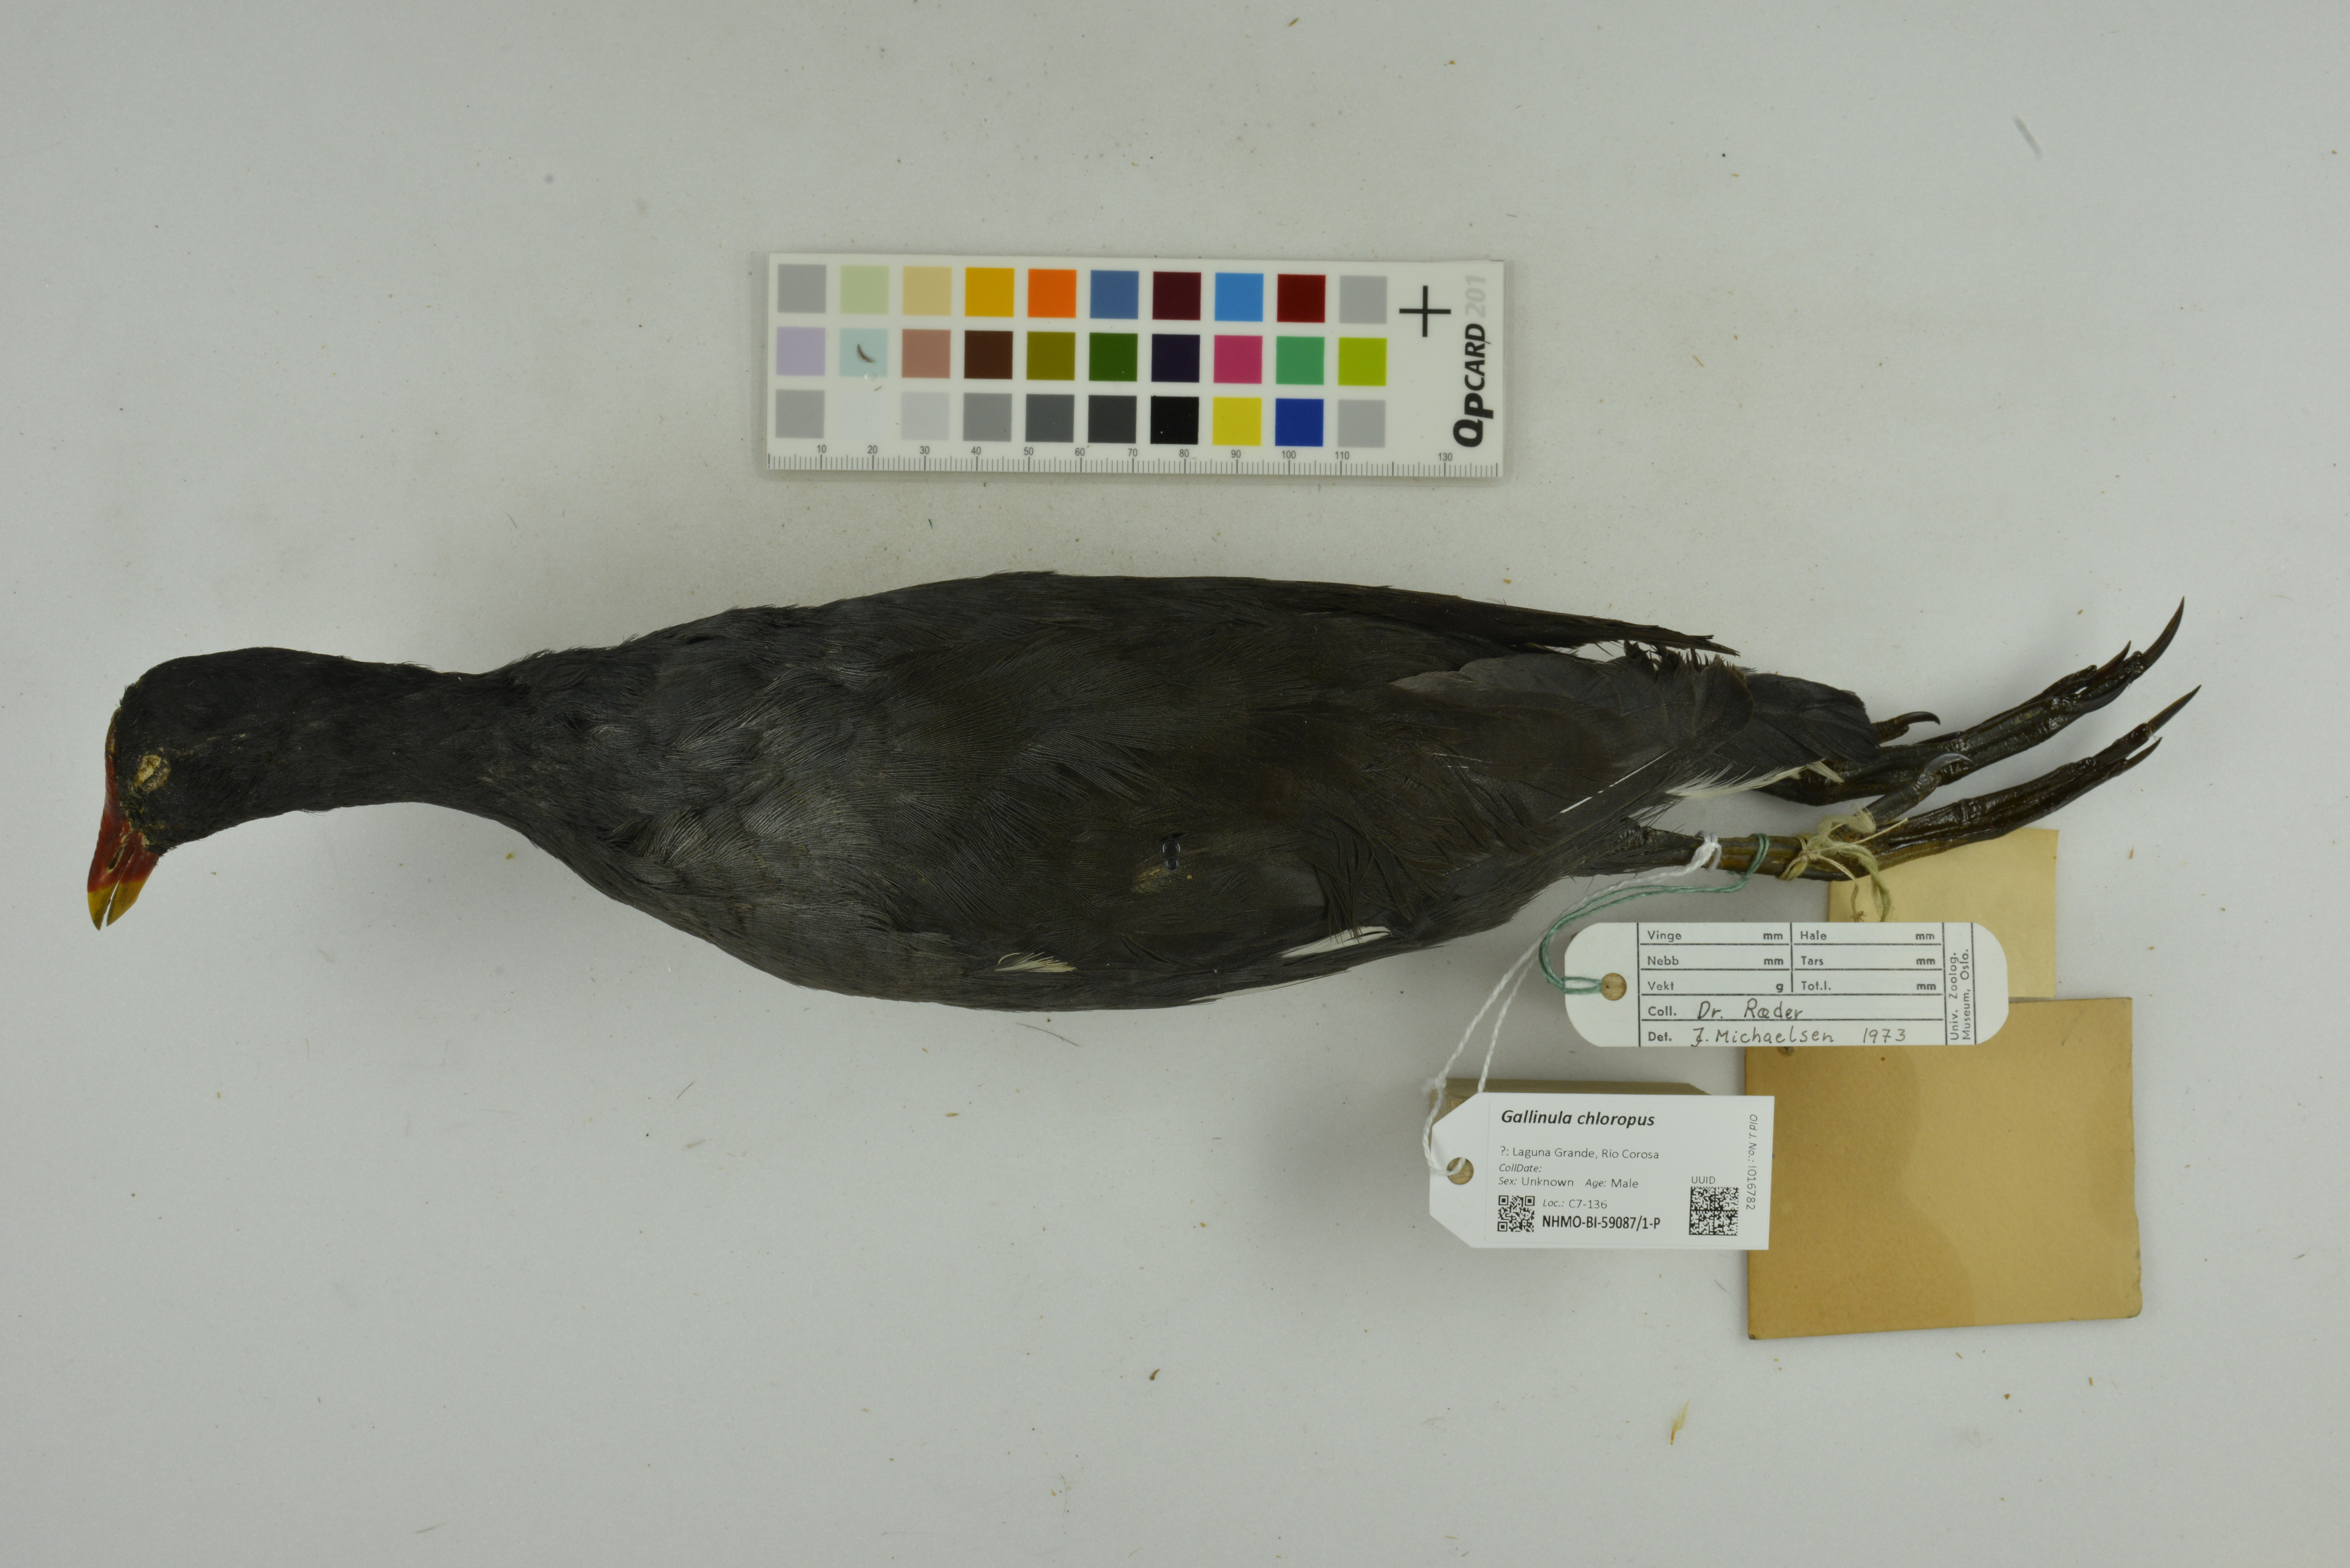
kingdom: Animalia
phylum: Chordata
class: Aves
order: Gruiformes
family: Rallidae
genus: Gallinula
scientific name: Gallinula chloropus
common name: Common moorhen
